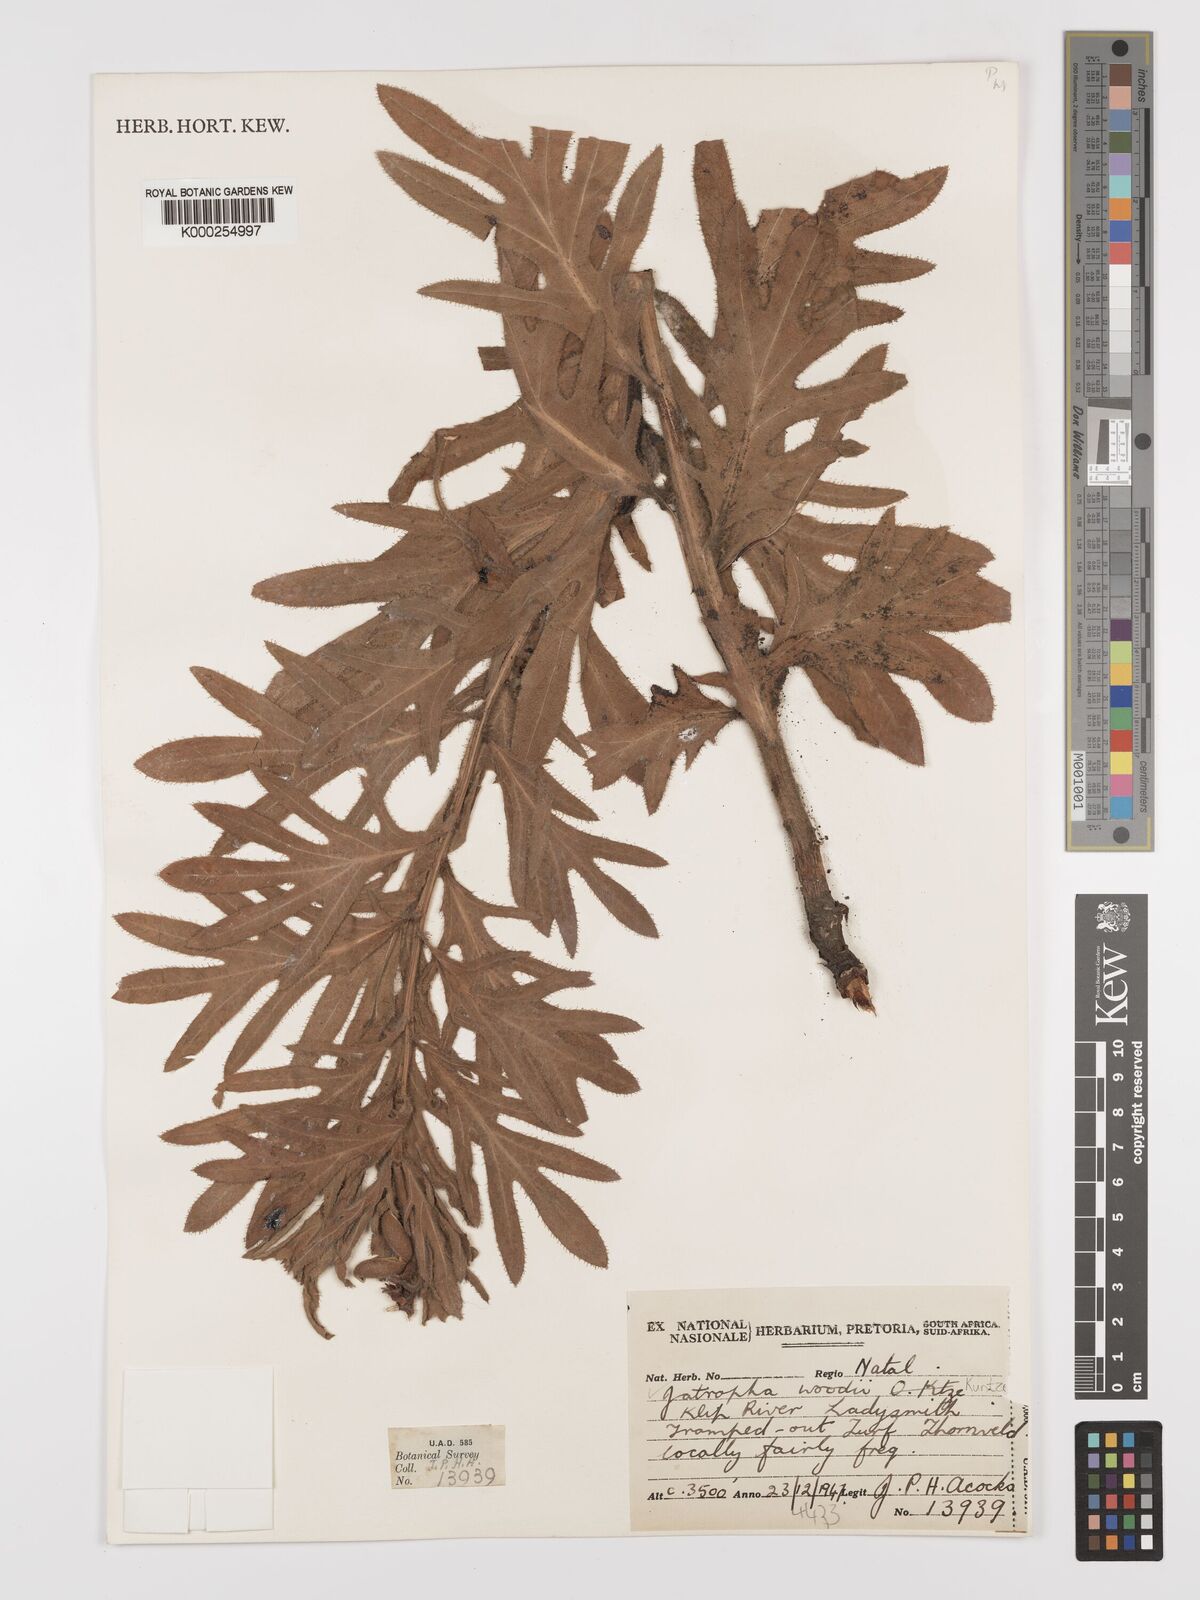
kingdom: Plantae
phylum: Tracheophyta
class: Magnoliopsida
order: Malpighiales
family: Euphorbiaceae
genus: Jatropha
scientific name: Jatropha woodii
